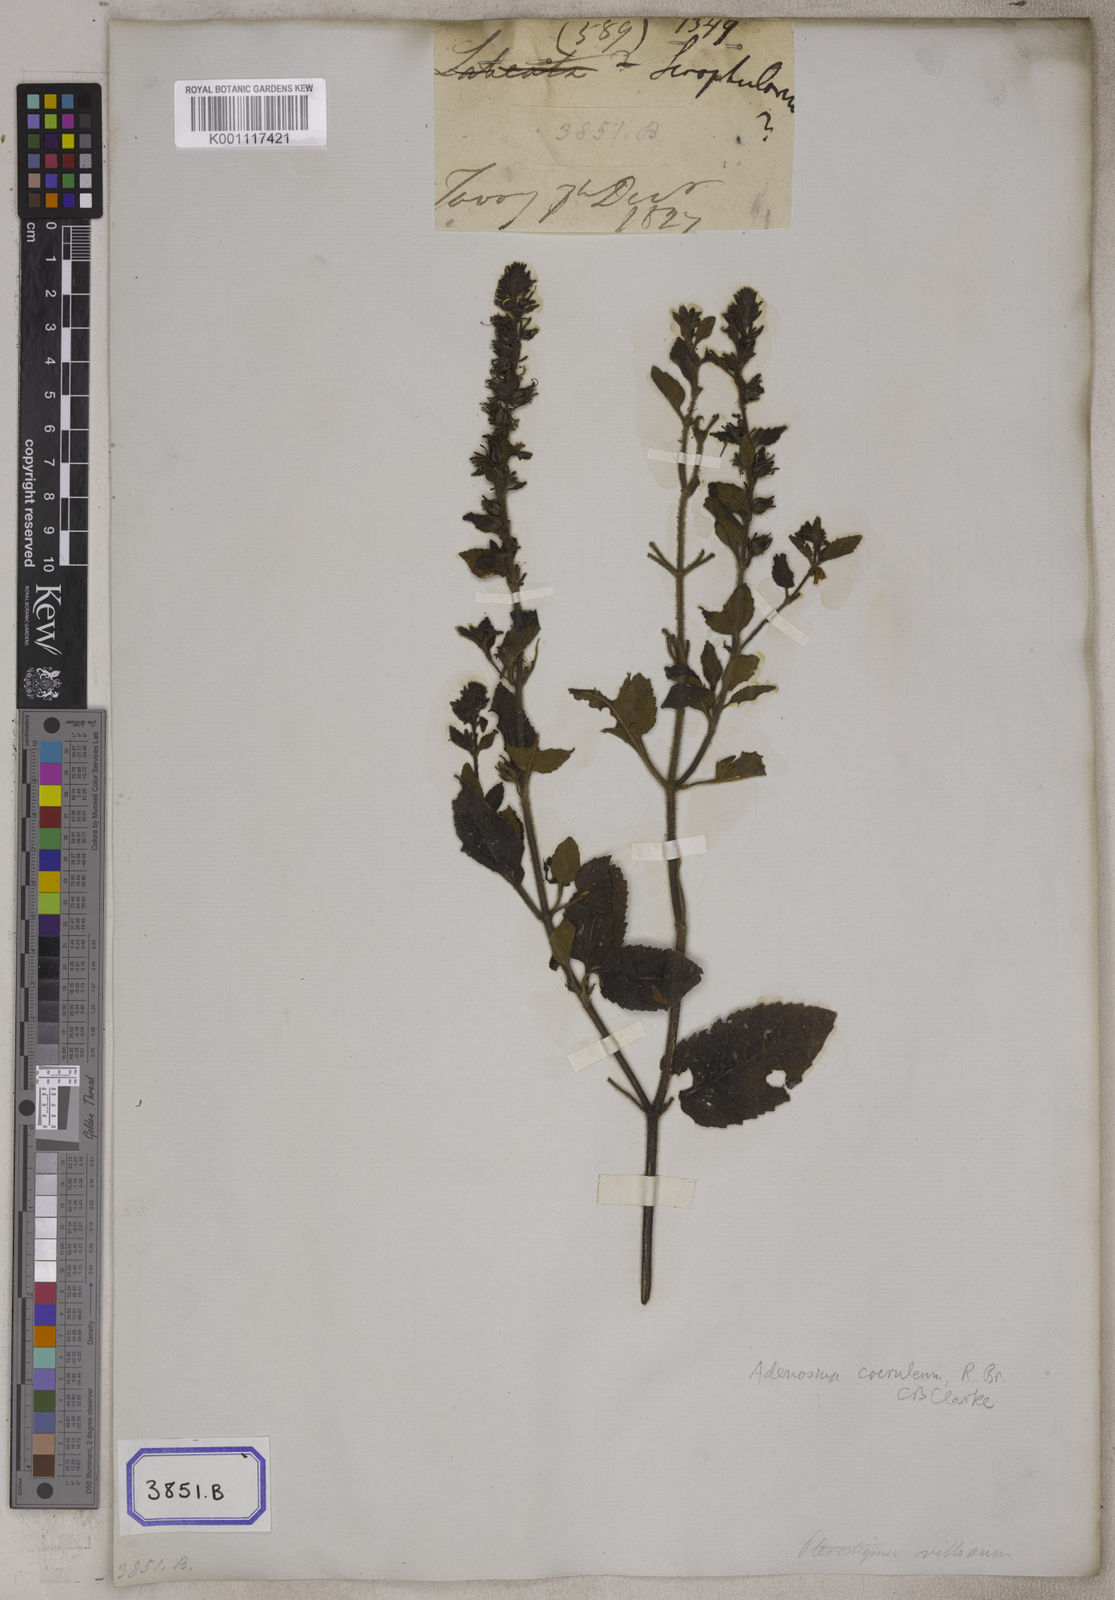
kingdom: Plantae
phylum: Tracheophyta
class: Magnoliopsida
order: Lamiales
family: Plantaginaceae
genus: Adenosma
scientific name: Adenosma glutinosa
